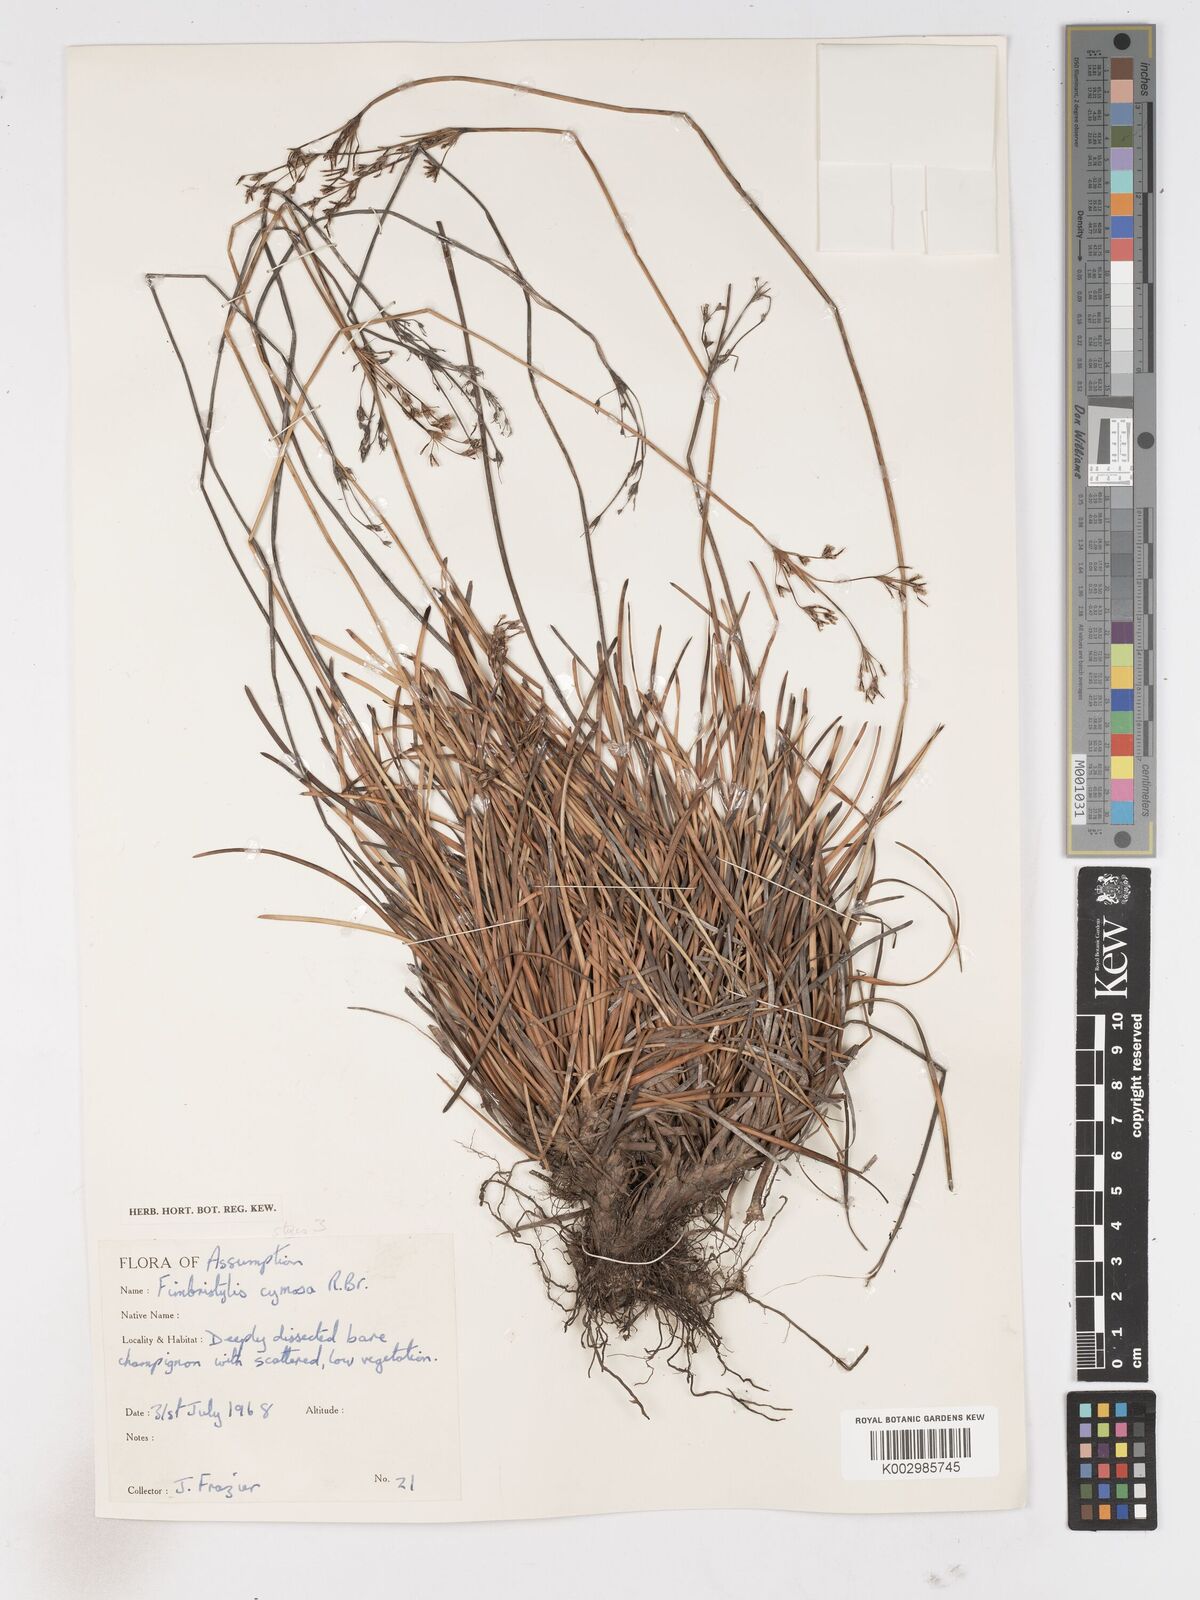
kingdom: Plantae
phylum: Tracheophyta
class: Liliopsida
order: Poales
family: Cyperaceae
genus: Fimbristylis
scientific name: Fimbristylis cymosa
